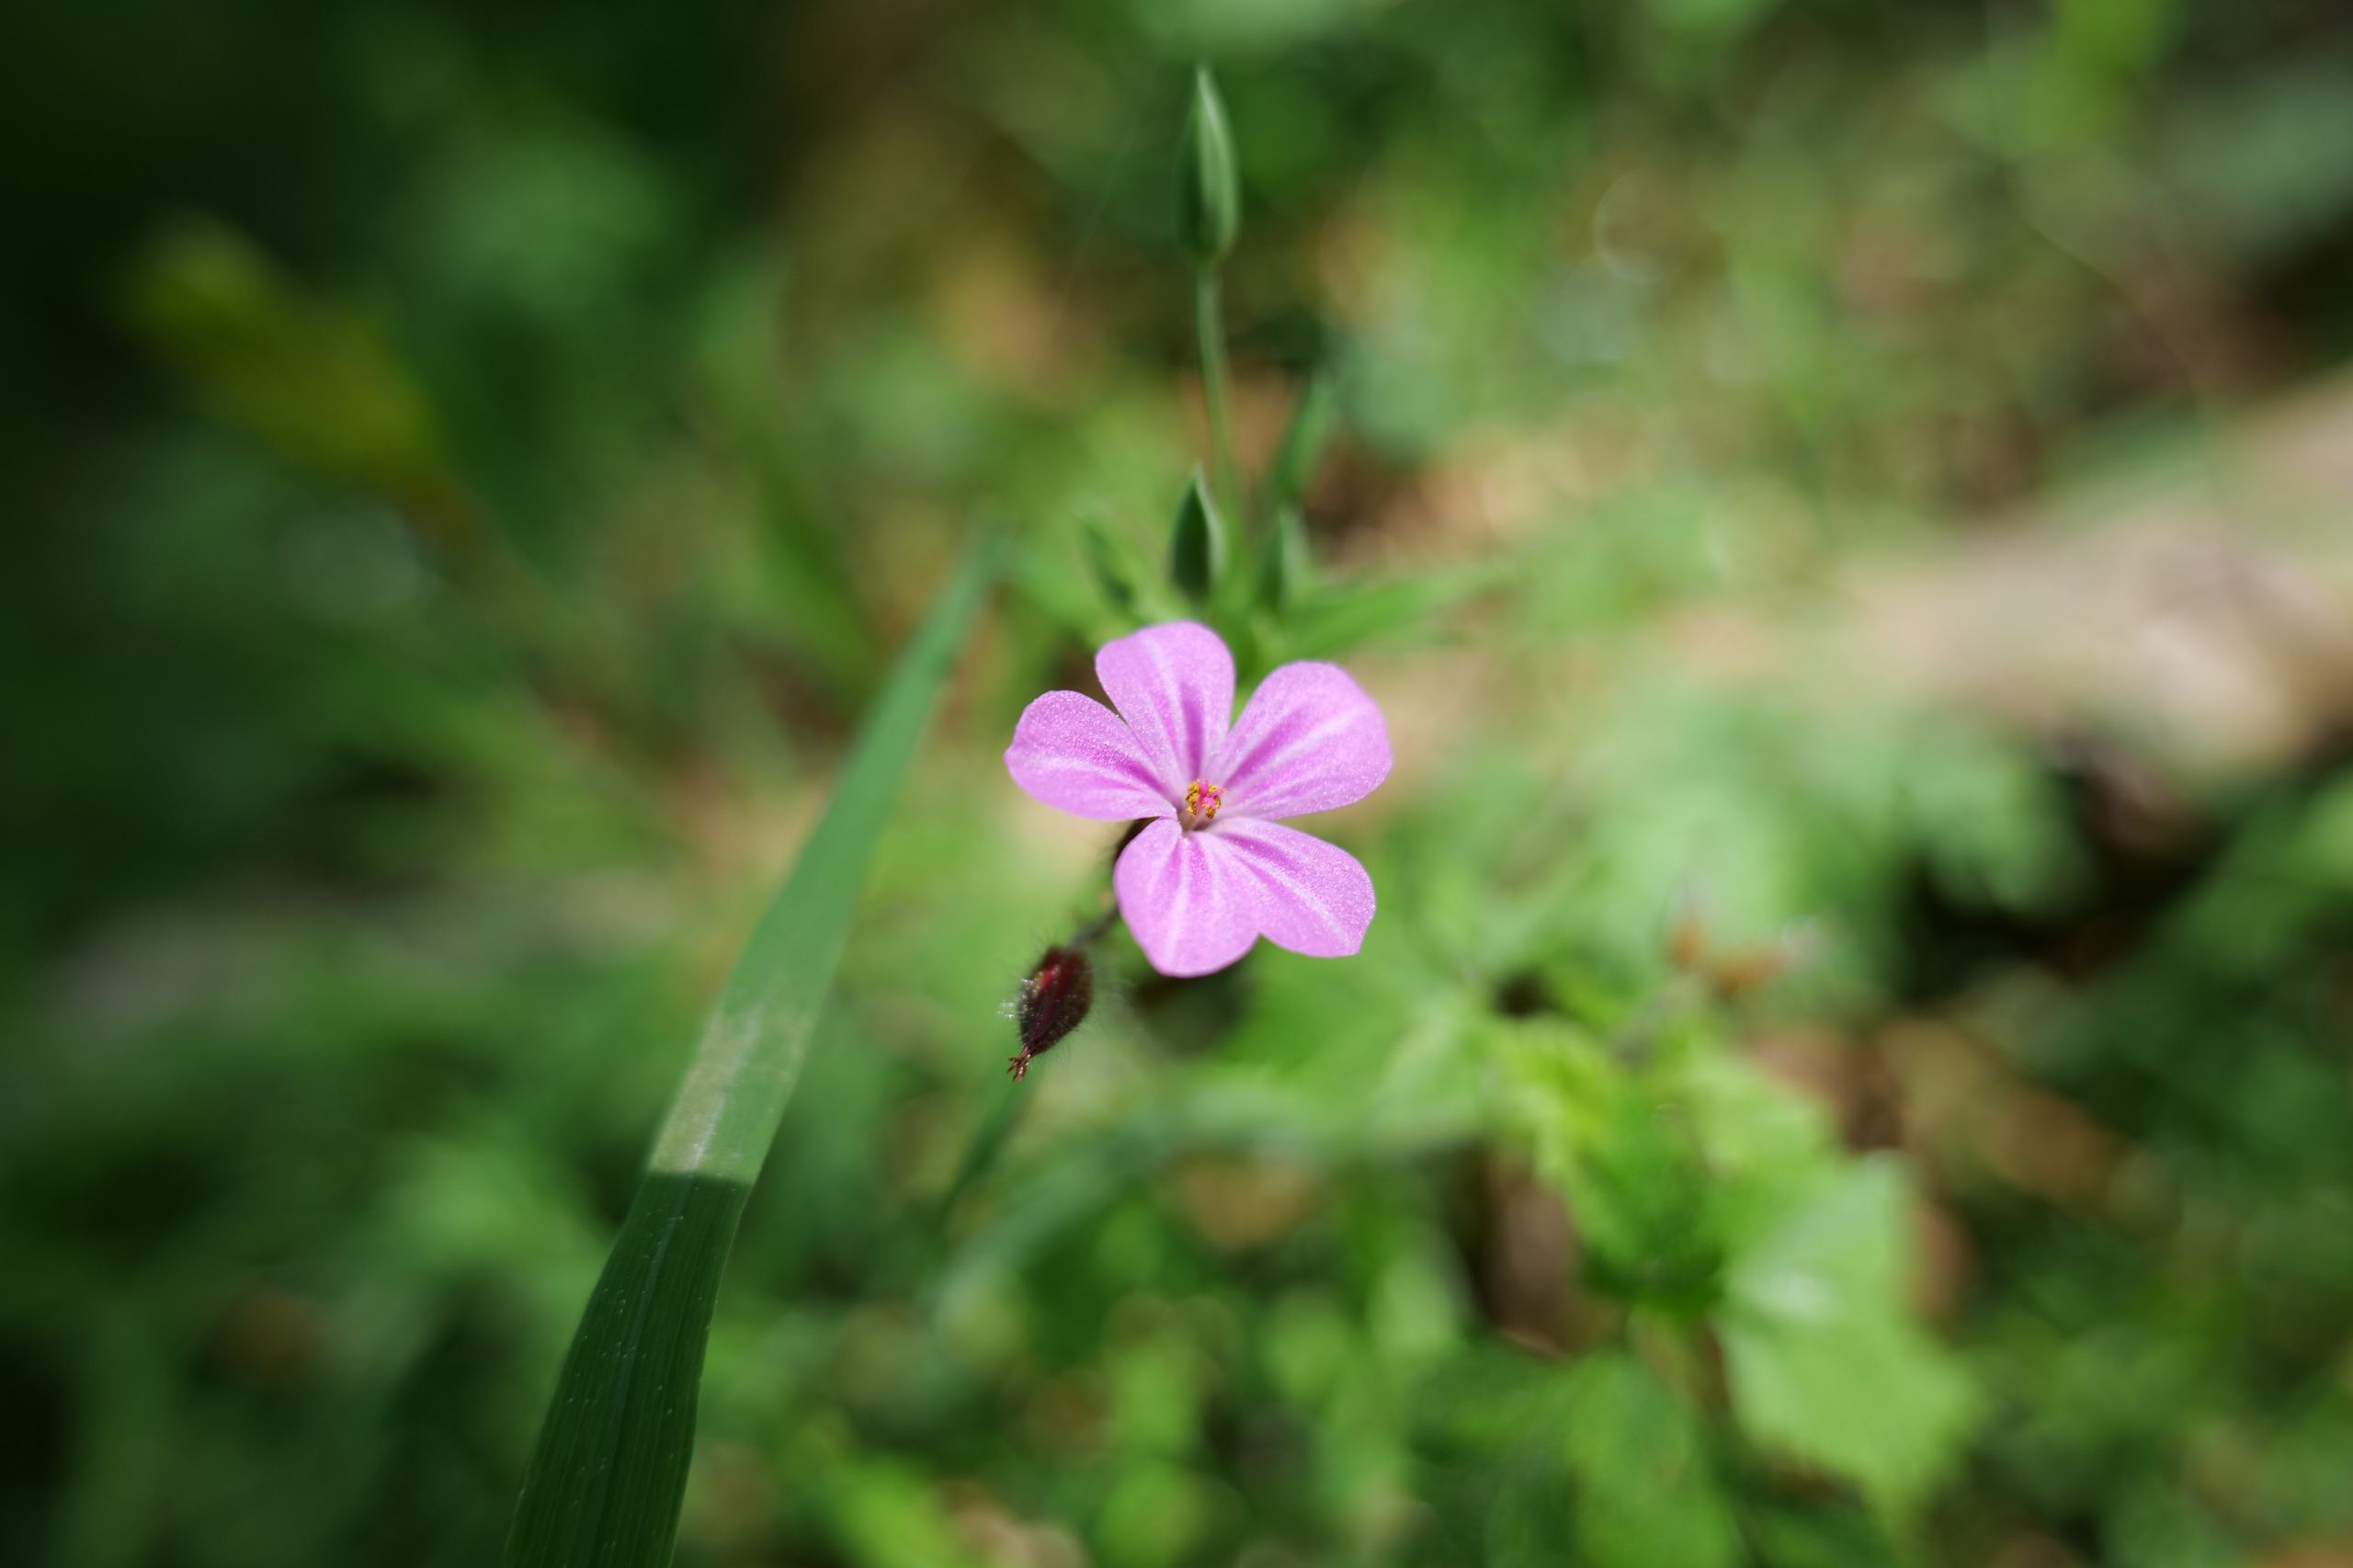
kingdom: Plantae
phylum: Tracheophyta
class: Magnoliopsida
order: Geraniales
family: Geraniaceae
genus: Geranium
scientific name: Geranium robertianum
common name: Stinkende storkenæb
